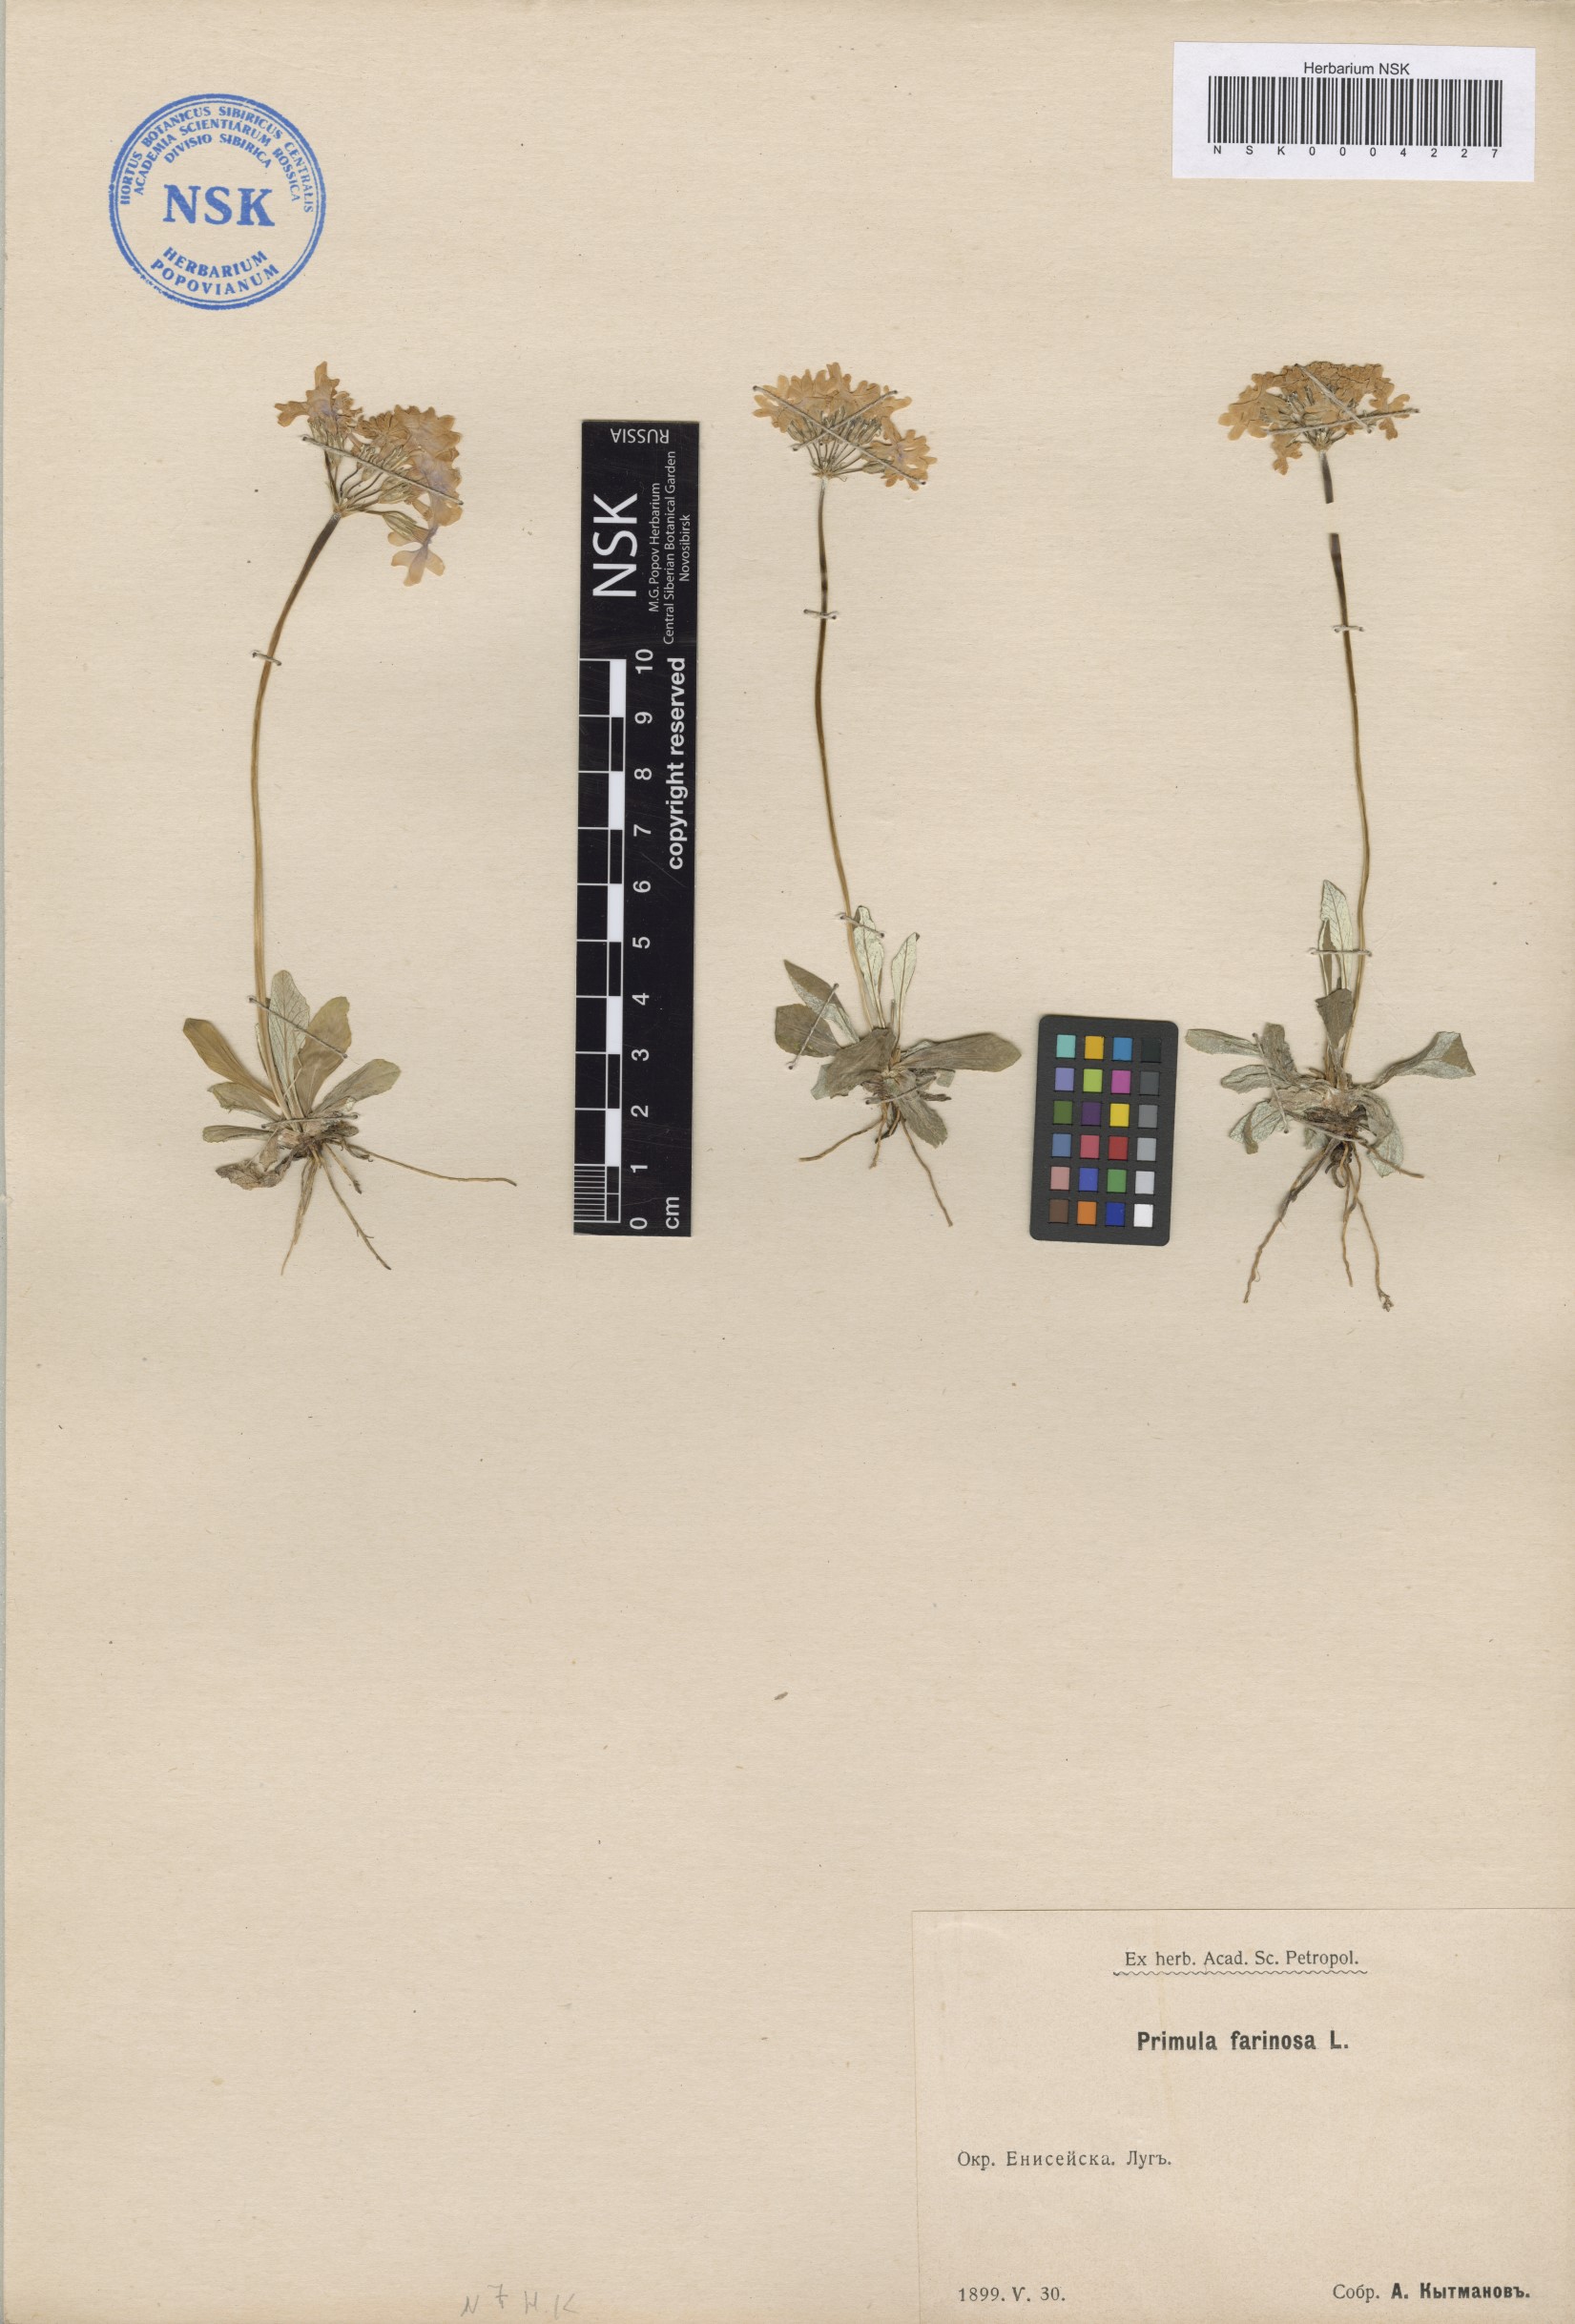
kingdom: Plantae
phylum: Tracheophyta
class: Magnoliopsida
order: Ericales
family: Primulaceae
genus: Primula
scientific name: Primula farinosa
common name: Bird's-eye primrose
